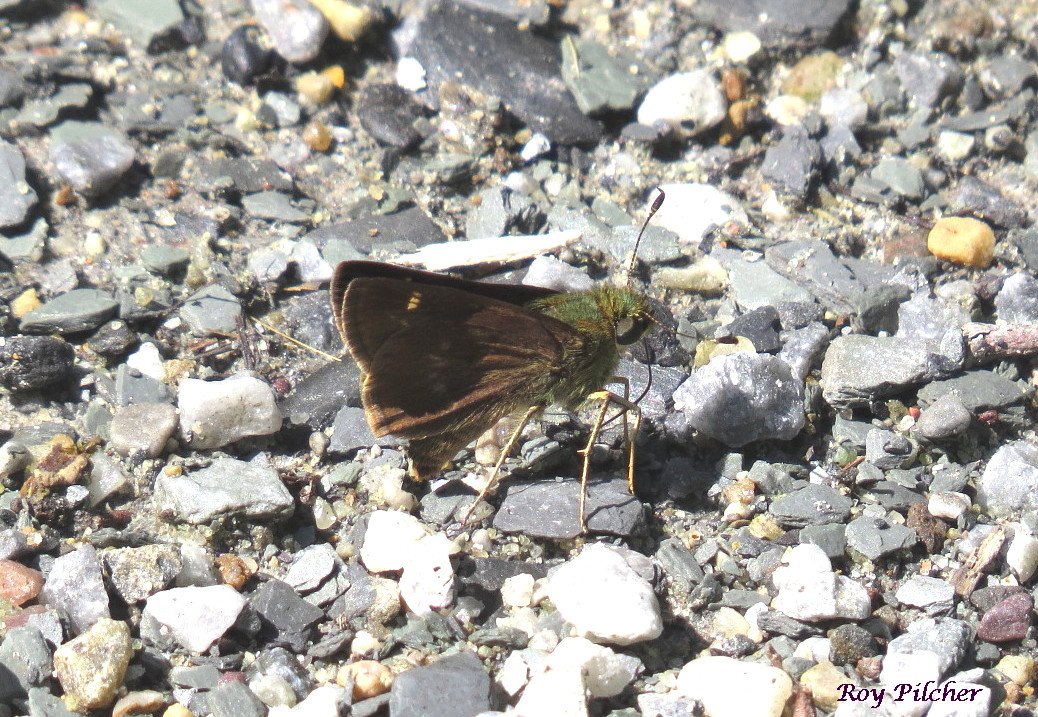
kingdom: Animalia
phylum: Arthropoda
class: Insecta
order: Lepidoptera
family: Hesperiidae
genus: Vernia
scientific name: Vernia verna
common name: Little Glassywing
